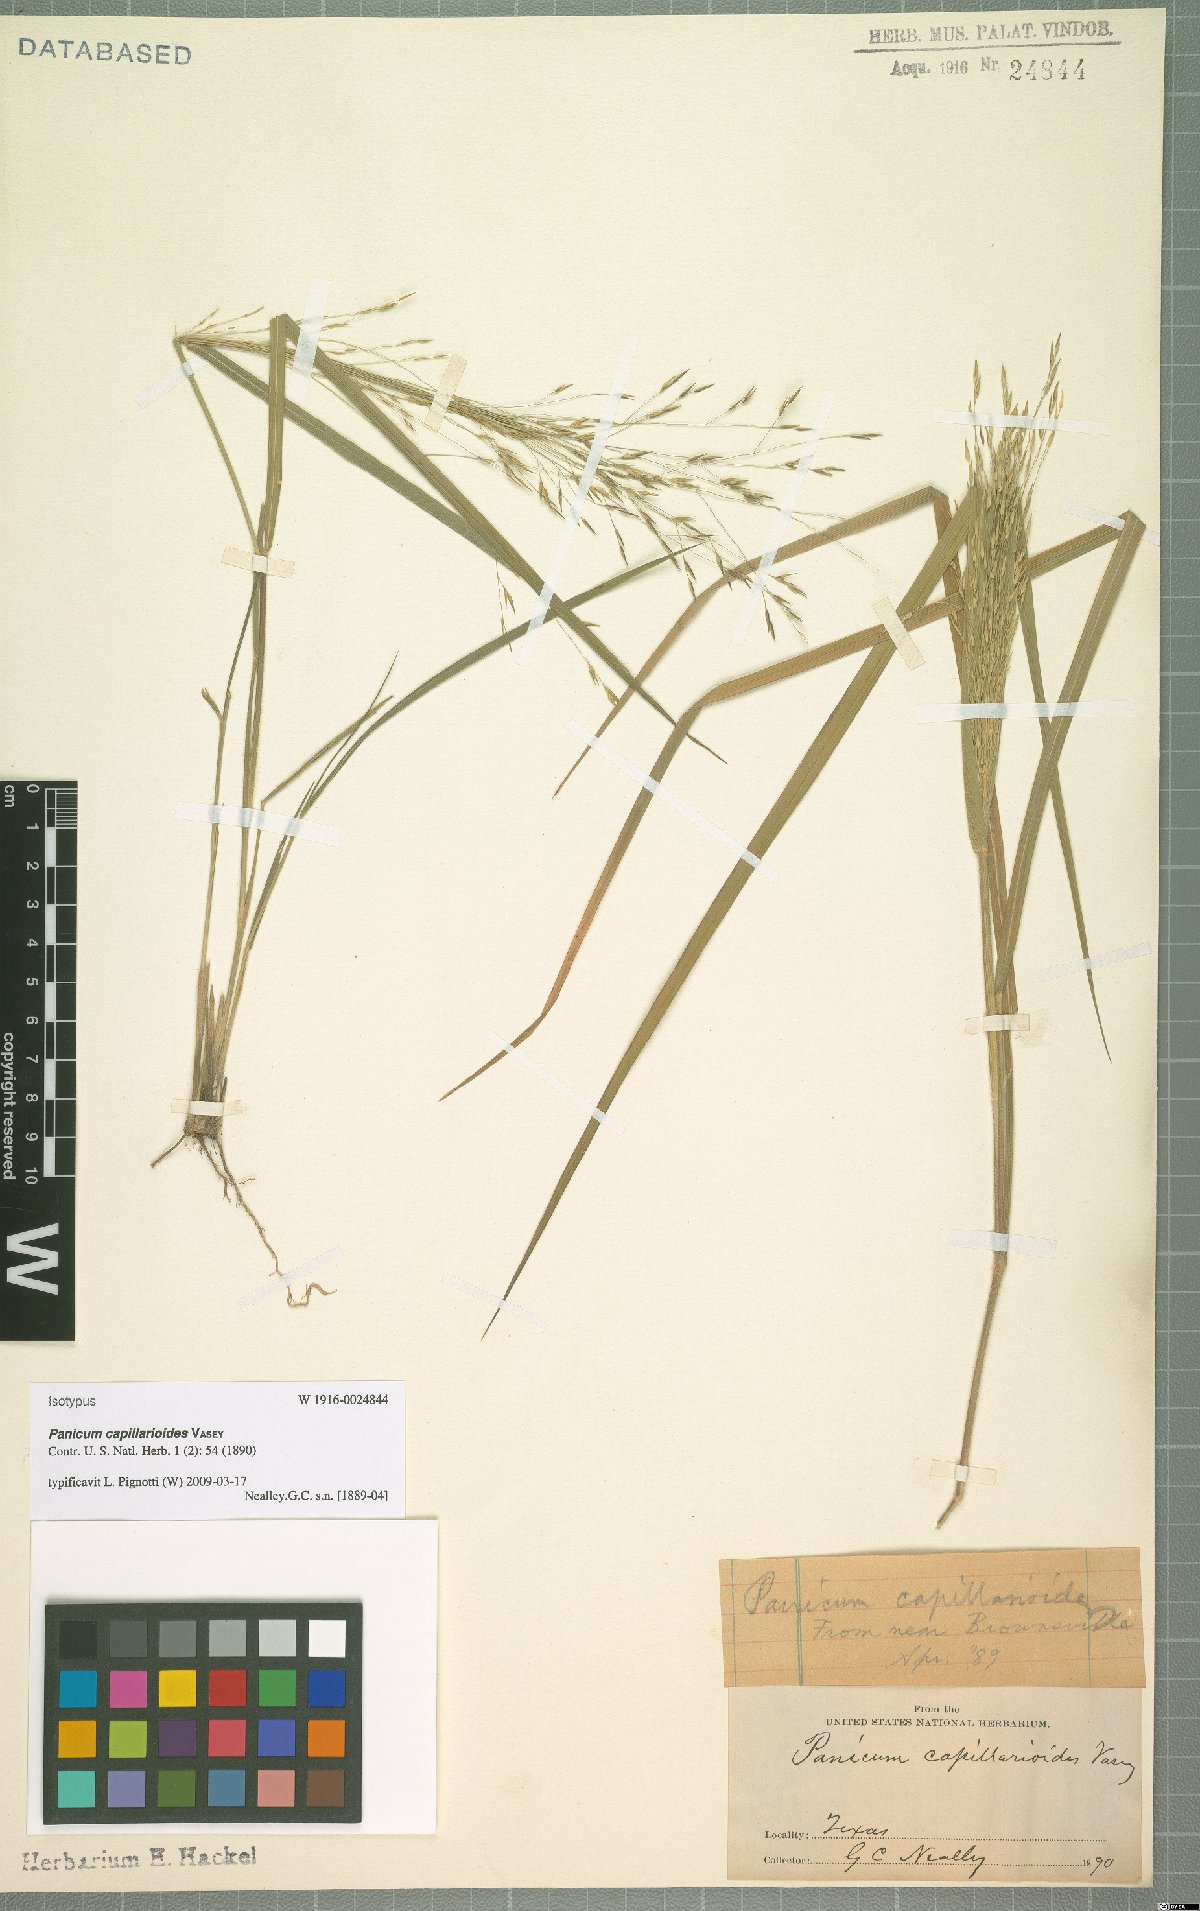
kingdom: Plantae
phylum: Tracheophyta
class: Liliopsida
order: Poales
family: Poaceae
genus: Panicum
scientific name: Panicum capillarioides
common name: Long-beak witchgrass
